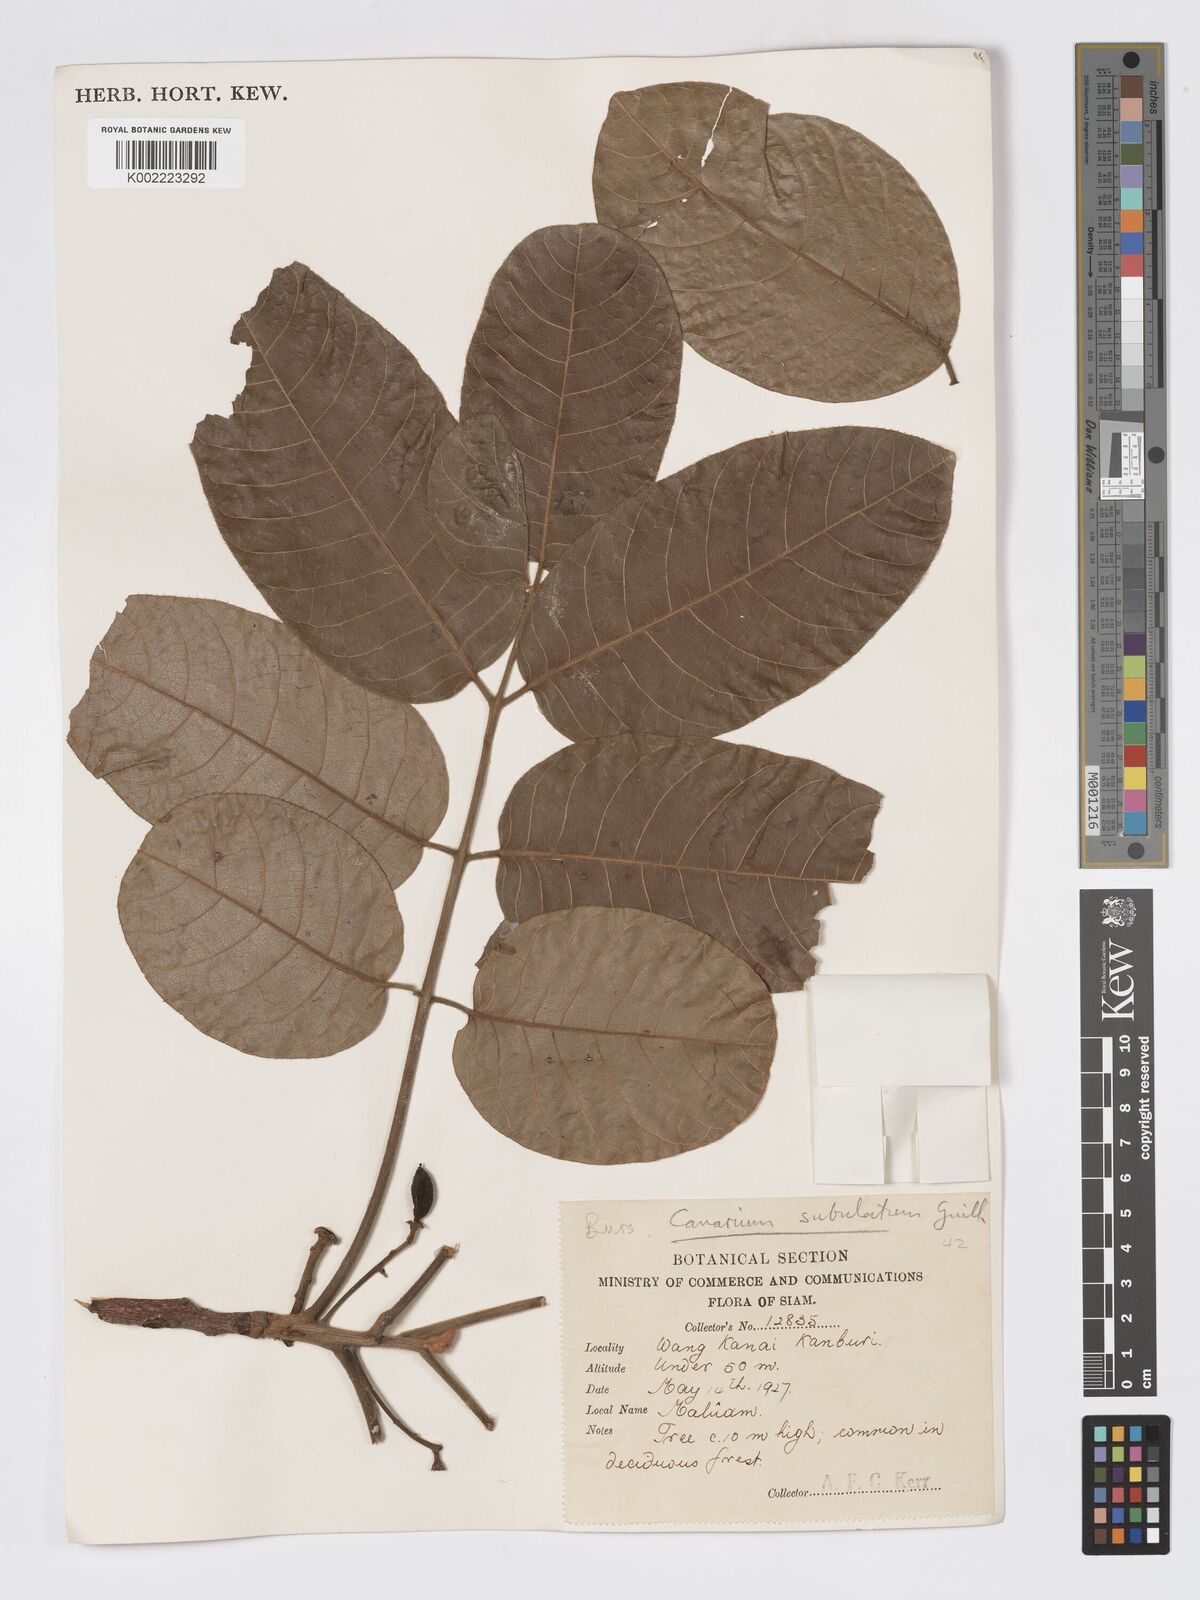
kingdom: Plantae
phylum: Tracheophyta
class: Magnoliopsida
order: Sapindales
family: Burseraceae
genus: Canarium
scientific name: Canarium subulatum
